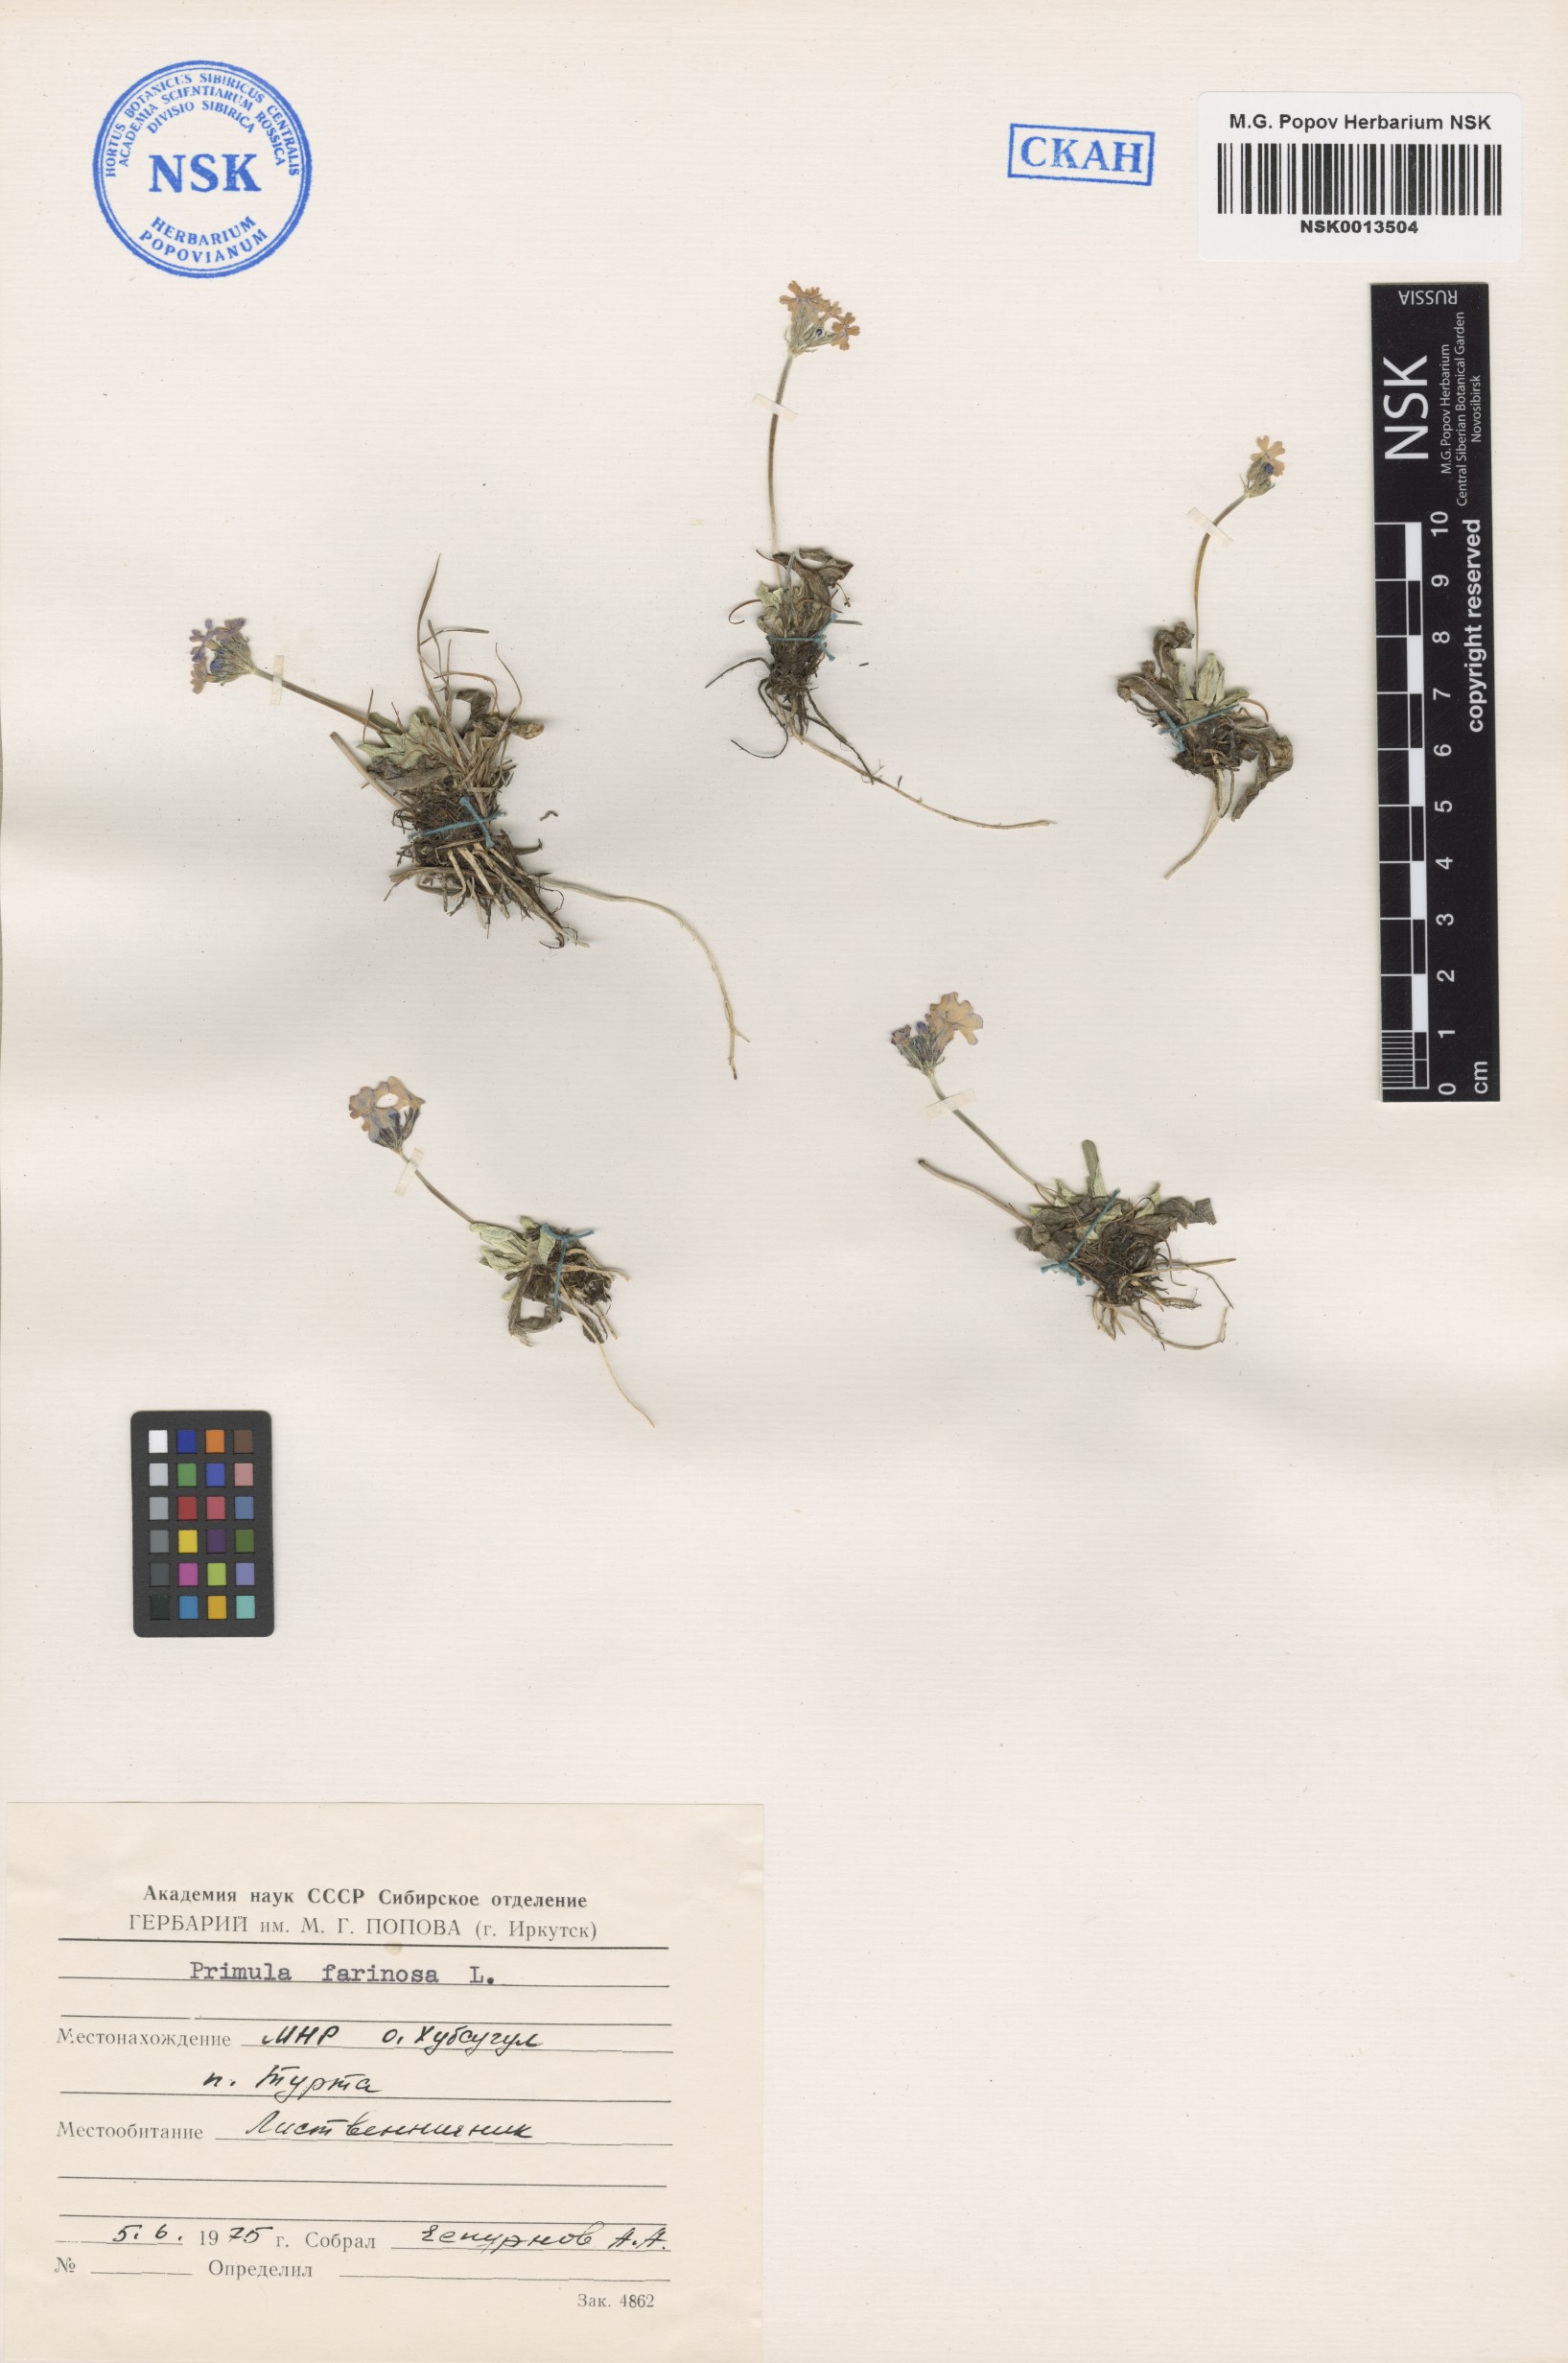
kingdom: Plantae
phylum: Tracheophyta
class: Magnoliopsida
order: Ericales
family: Primulaceae
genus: Primula
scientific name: Primula farinosa
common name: Bird's-eye primrose
